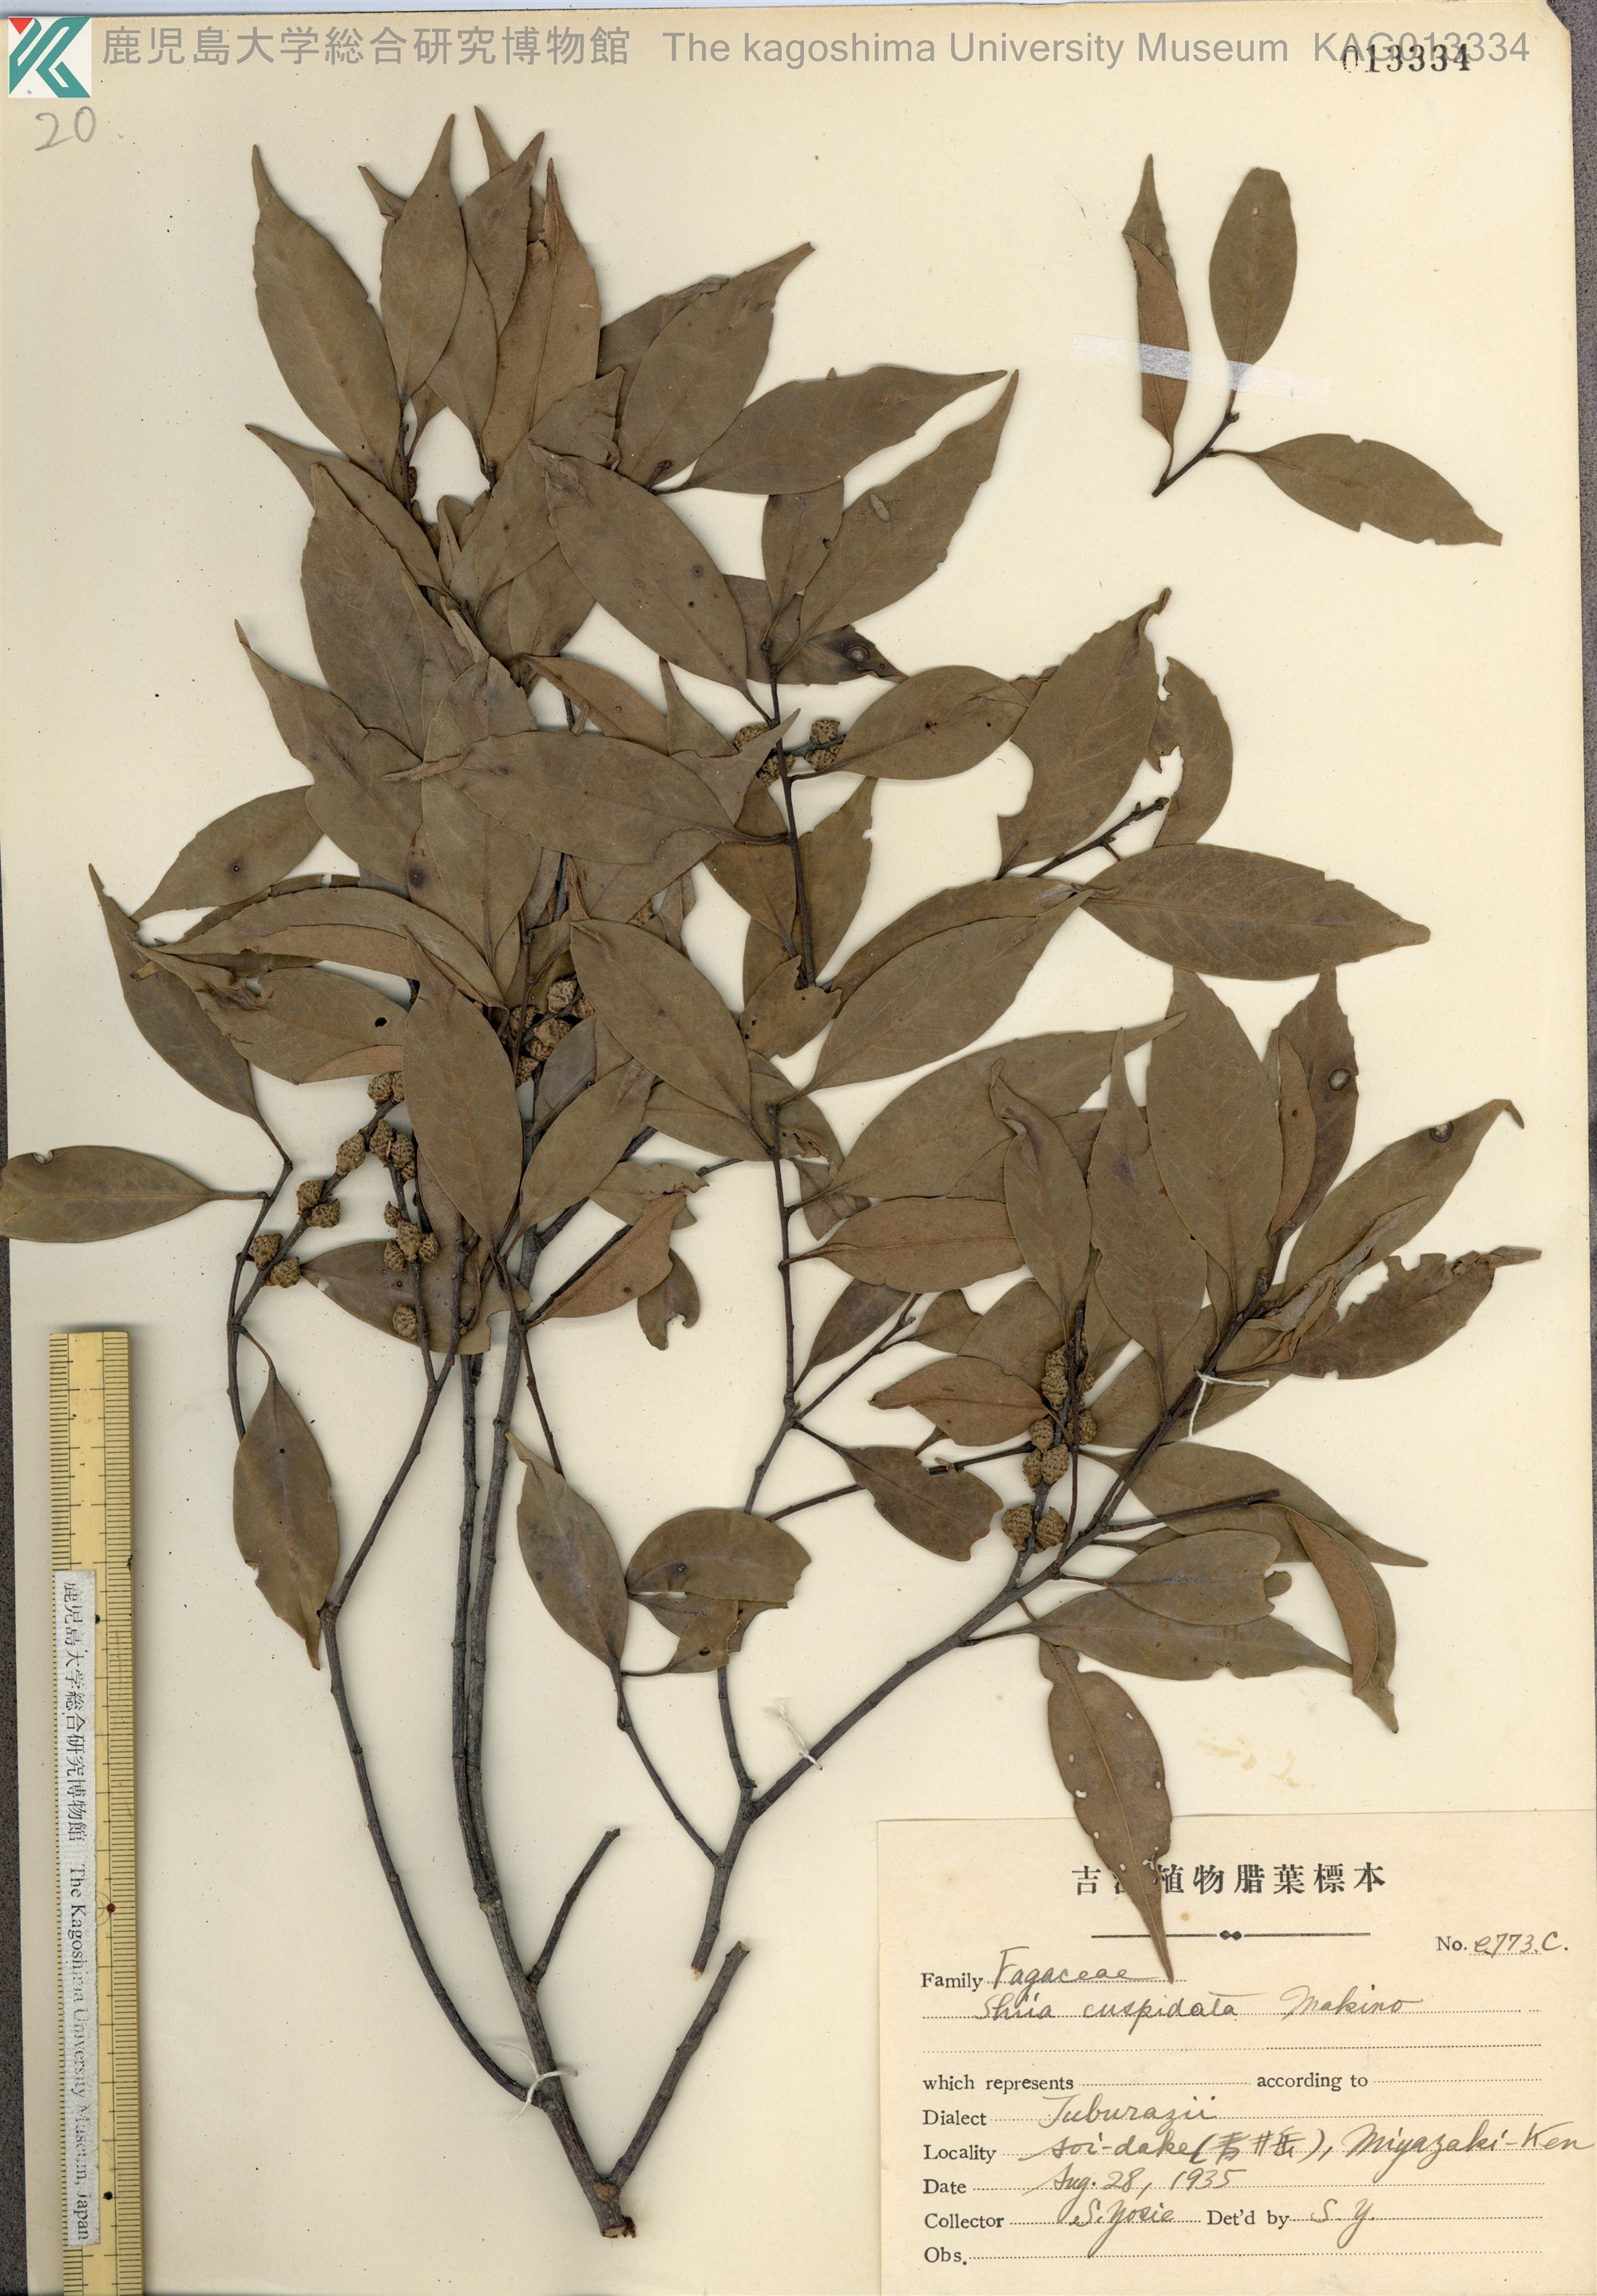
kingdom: Plantae
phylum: Tracheophyta
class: Magnoliopsida
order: Fagales
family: Fagaceae
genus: Castanopsis
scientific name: Castanopsis cuspidata
